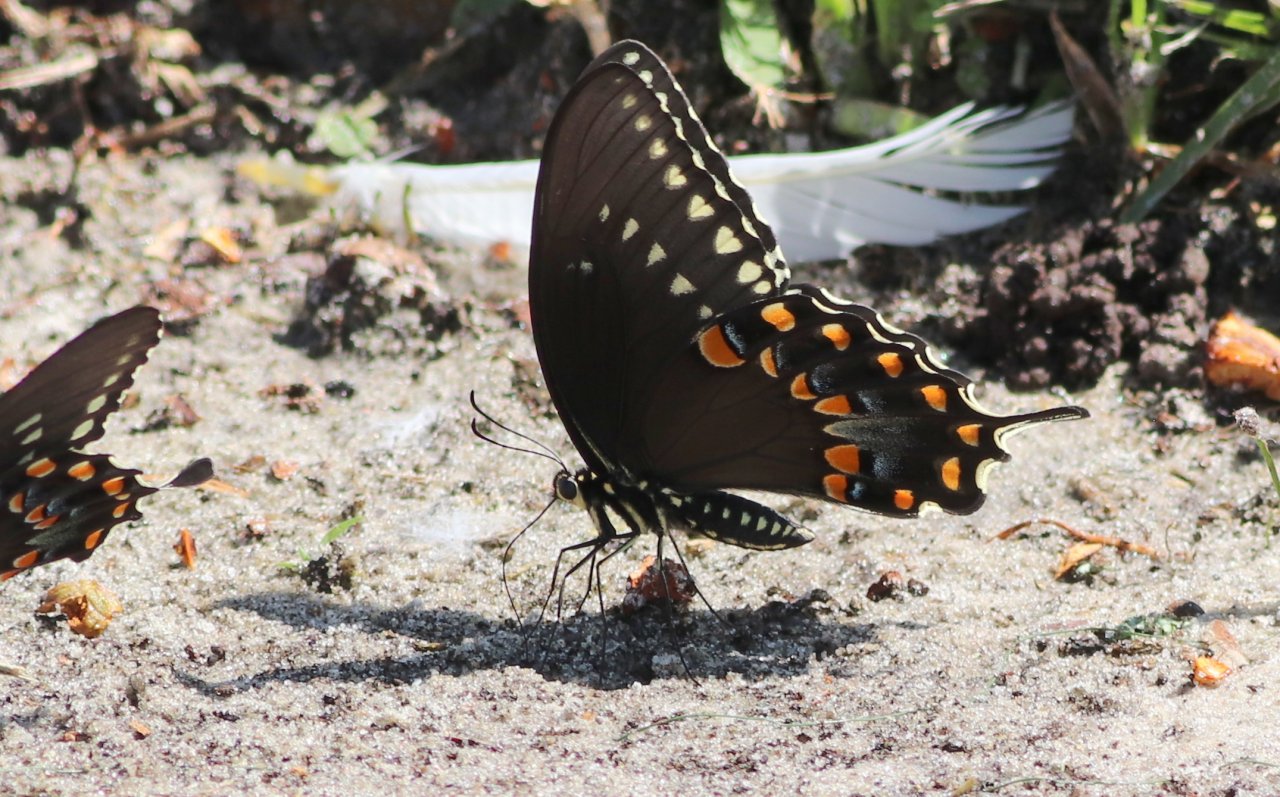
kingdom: Animalia
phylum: Arthropoda
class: Insecta
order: Lepidoptera
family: Papilionidae
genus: Pterourus
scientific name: Pterourus troilus
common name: Spicebush Swallowtail
